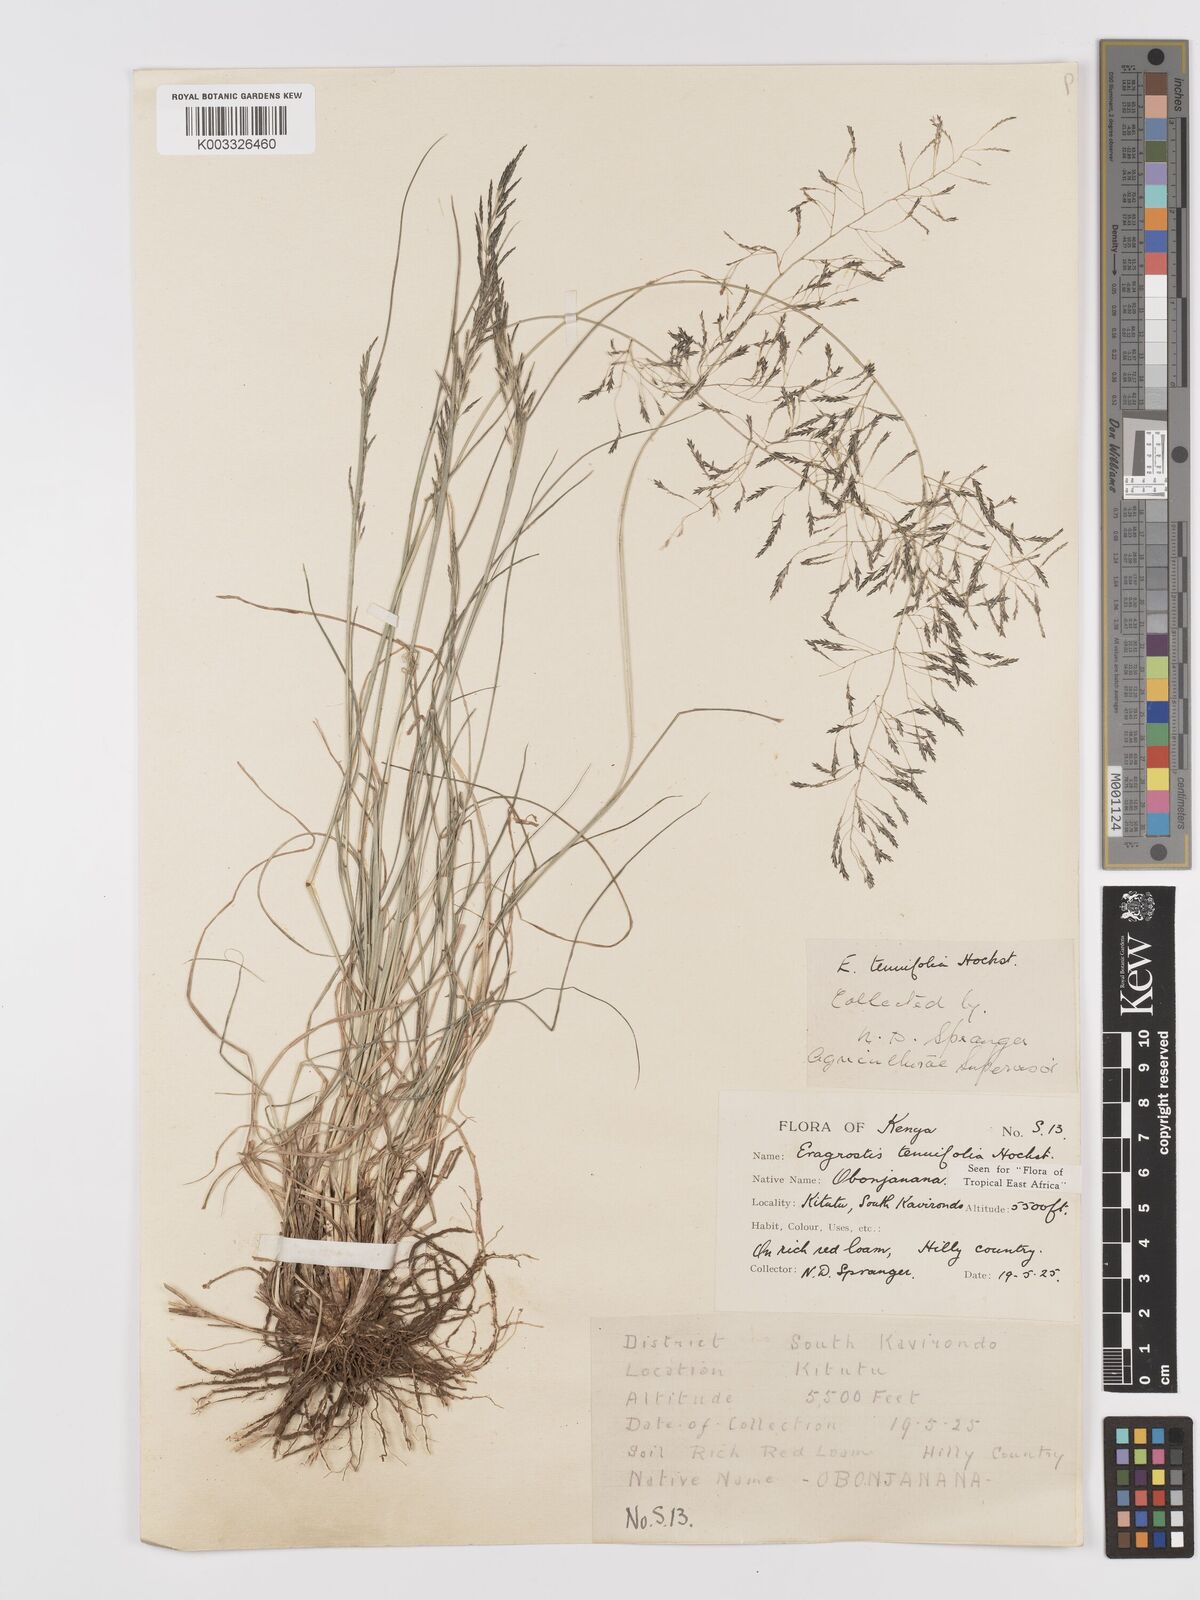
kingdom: Plantae
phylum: Tracheophyta
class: Liliopsida
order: Poales
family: Poaceae
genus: Eragrostis
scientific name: Eragrostis tenuifolia
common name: Elastic grass
